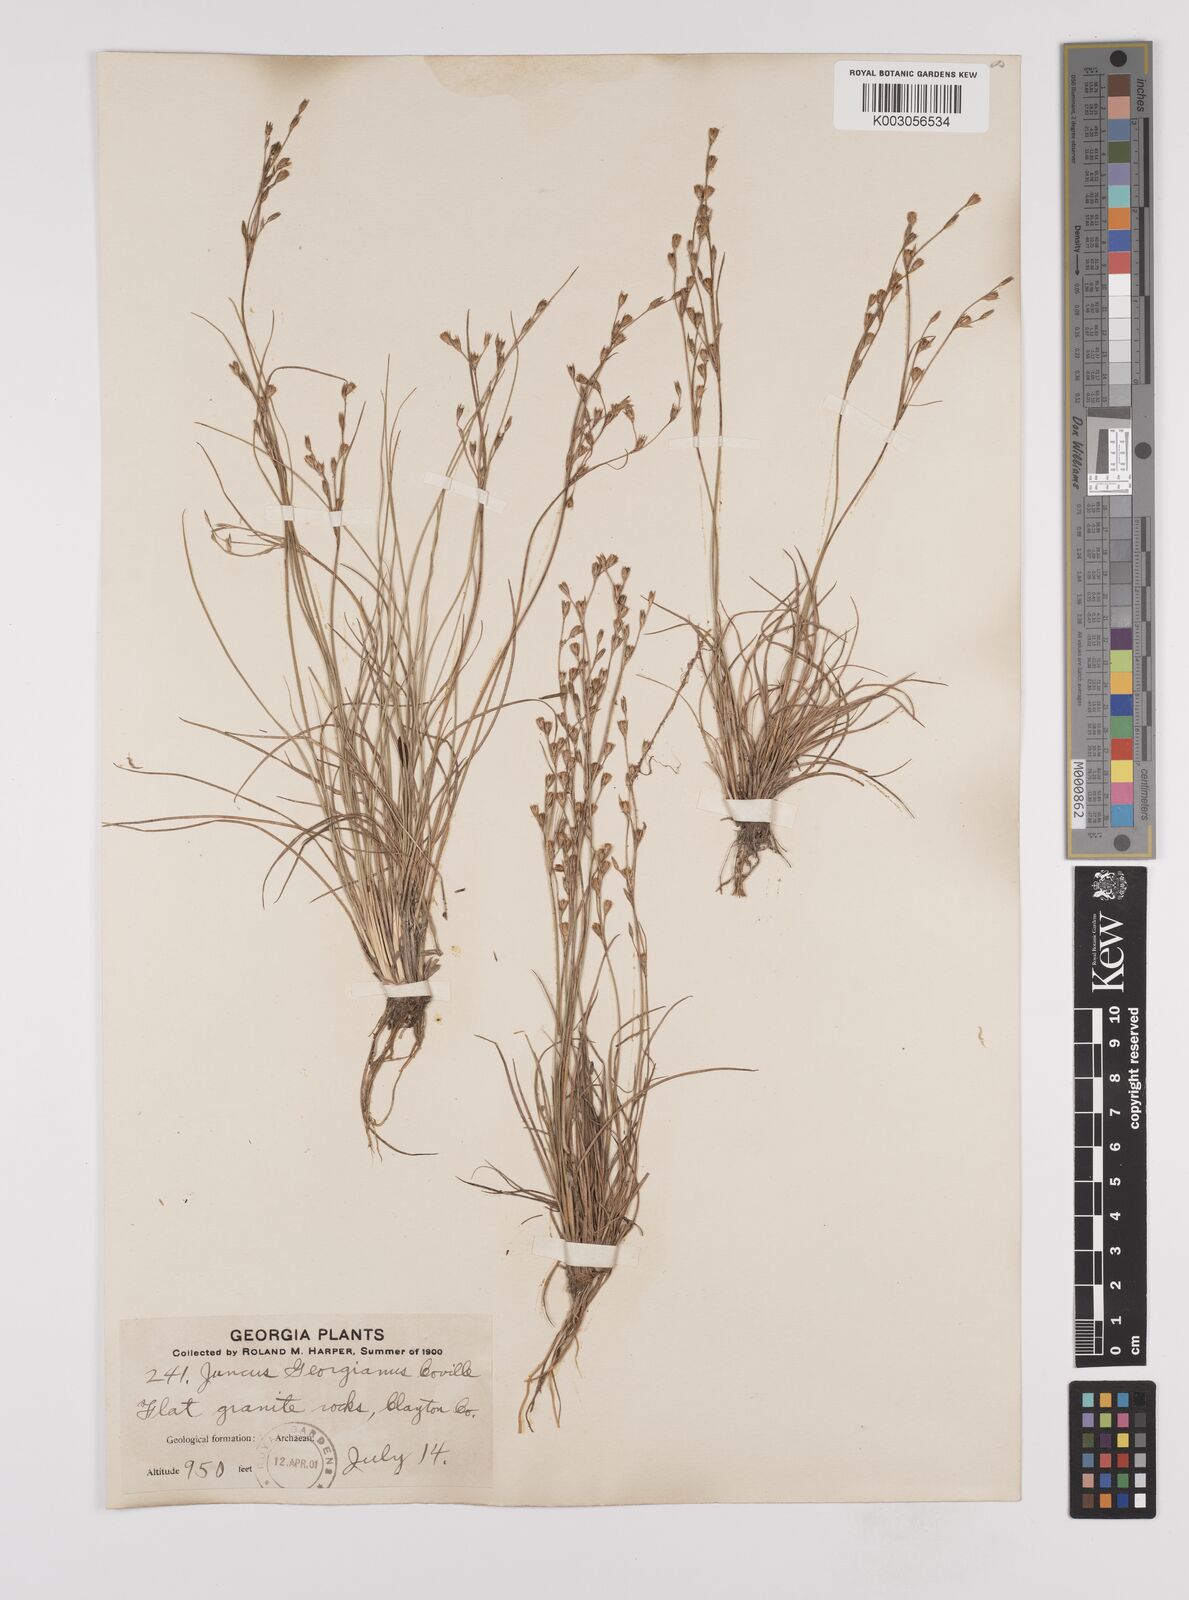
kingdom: Plantae
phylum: Tracheophyta
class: Liliopsida
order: Poales
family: Juncaceae
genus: Juncus
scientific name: Juncus georgianus
